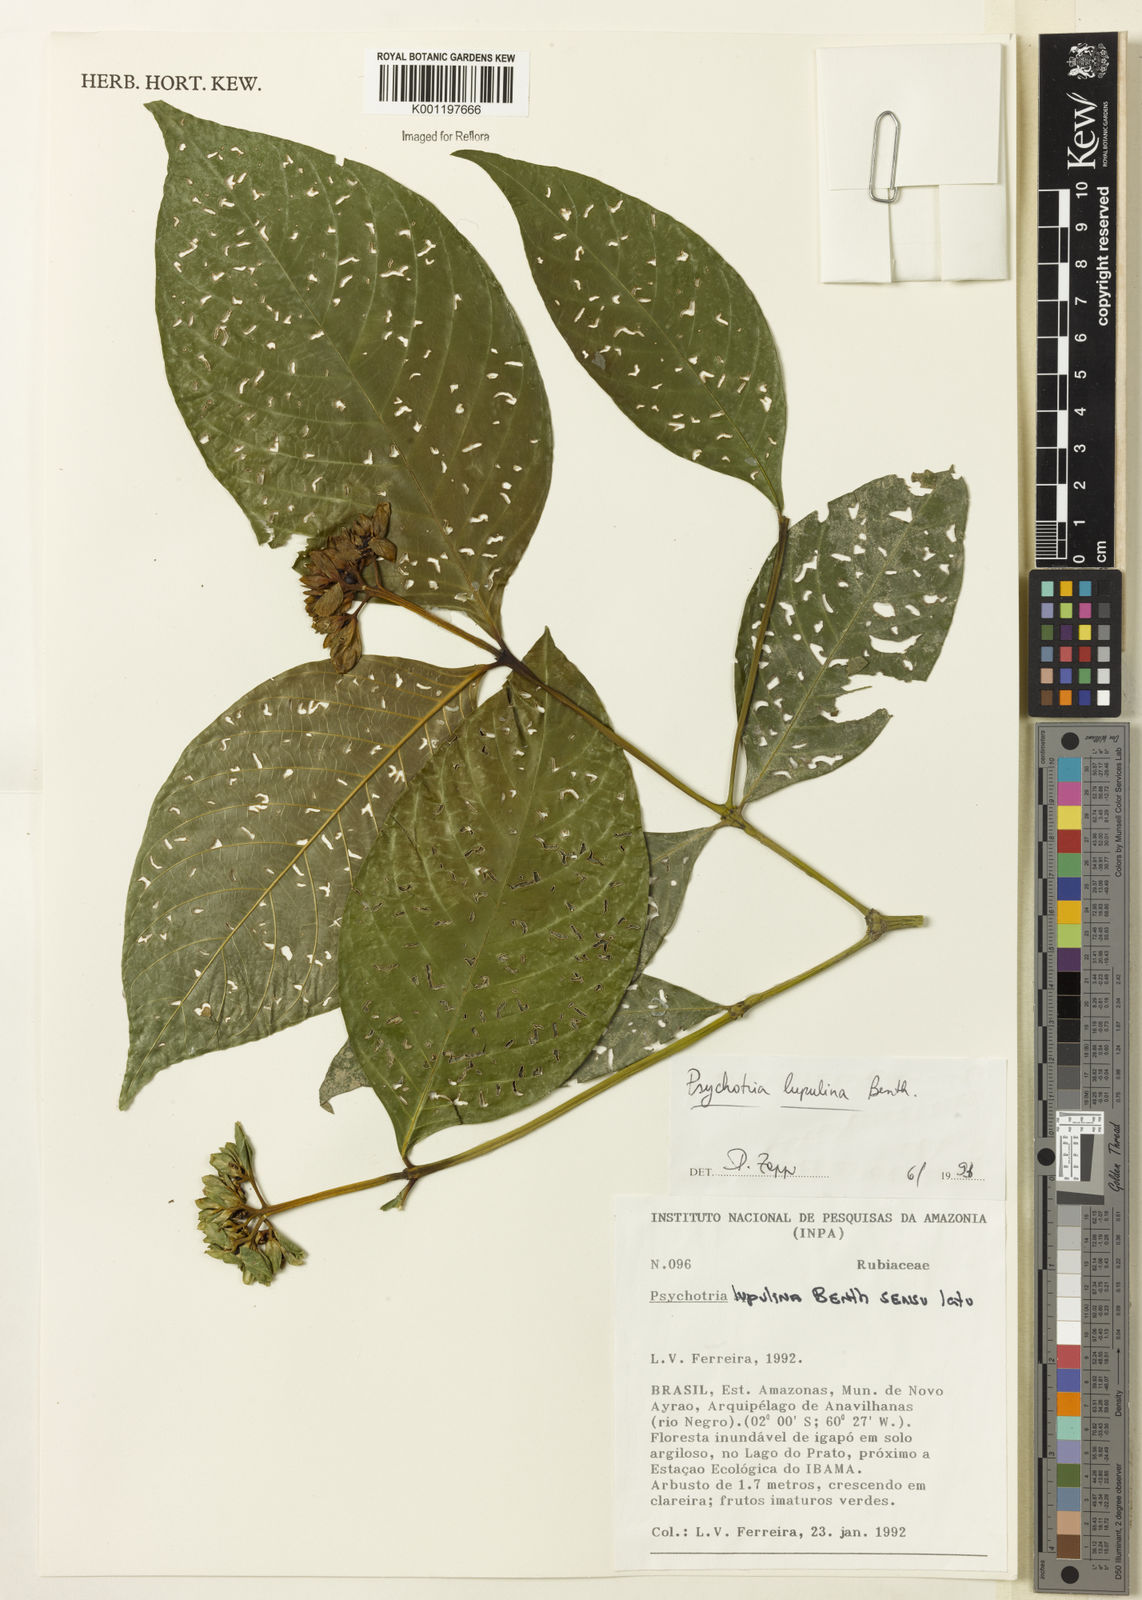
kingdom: Plantae
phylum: Tracheophyta
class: Magnoliopsida
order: Gentianales
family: Rubiaceae
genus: Palicourea
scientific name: Palicourea justiciifolia
